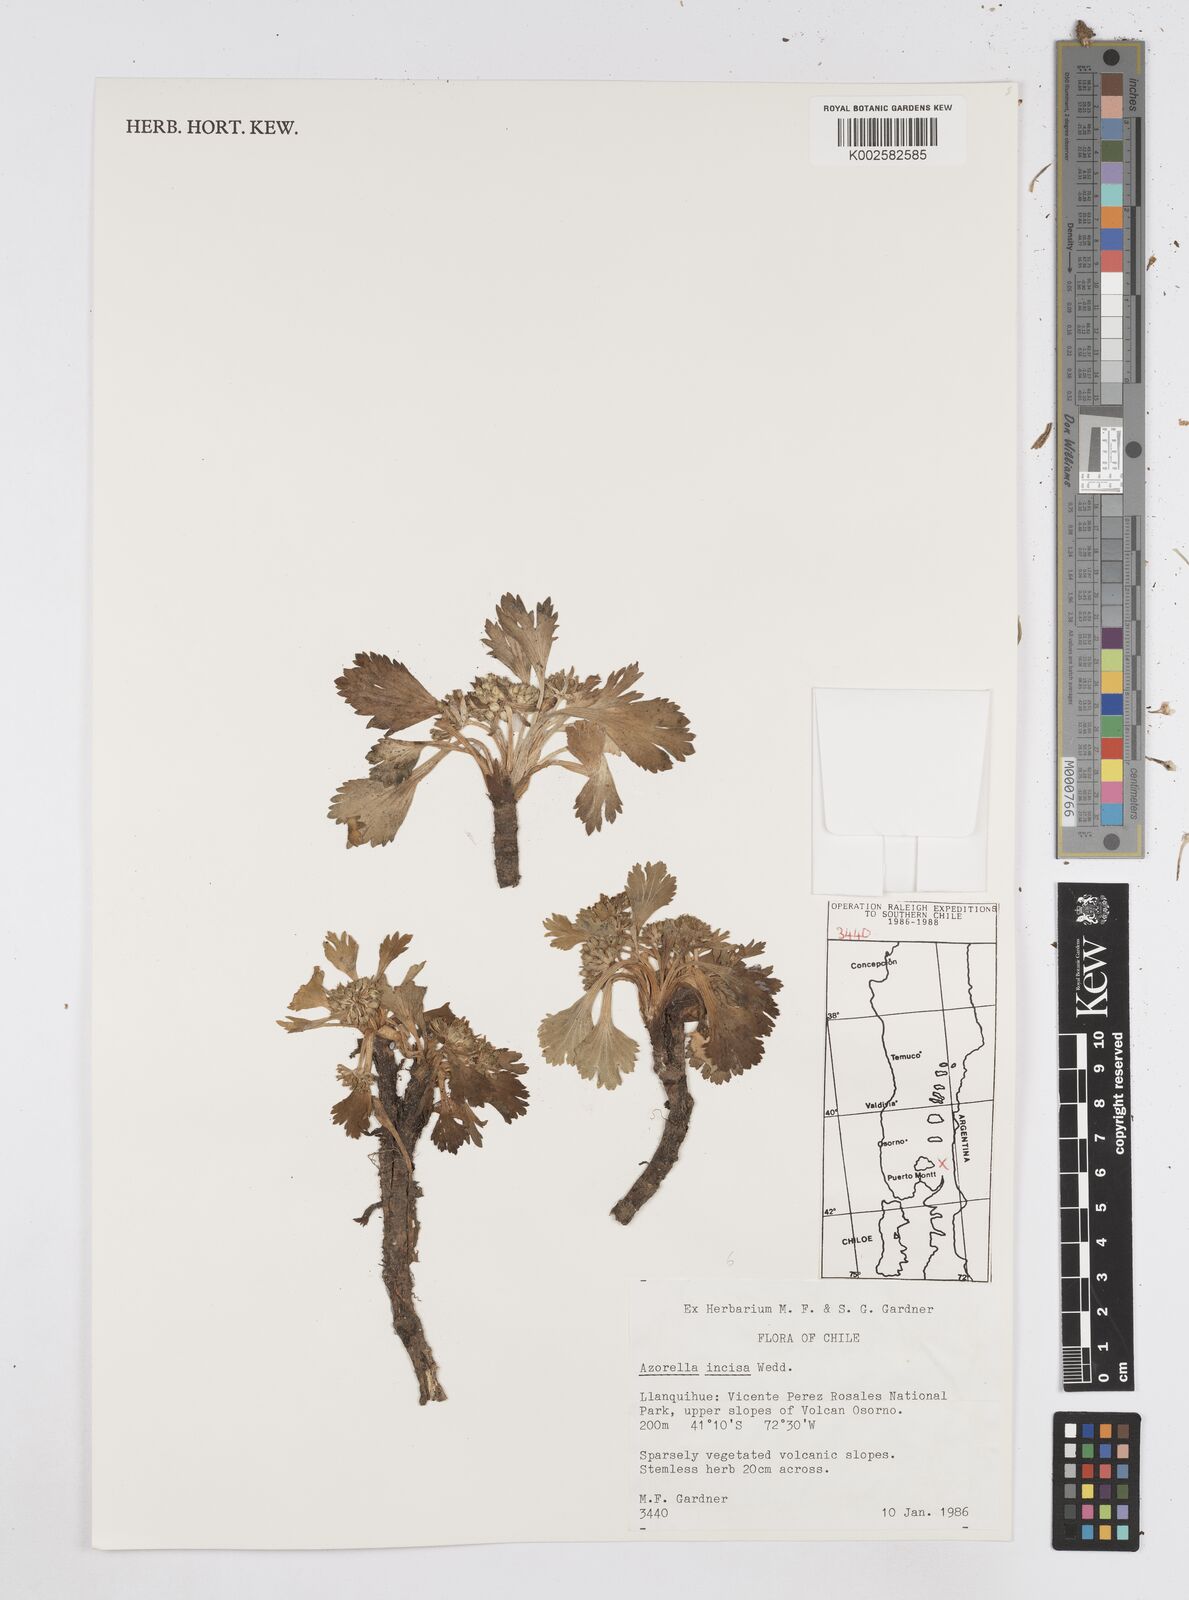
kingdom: Plantae
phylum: Tracheophyta
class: Magnoliopsida
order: Apiales
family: Apiaceae
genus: Azorella
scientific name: Azorella diversifolia
